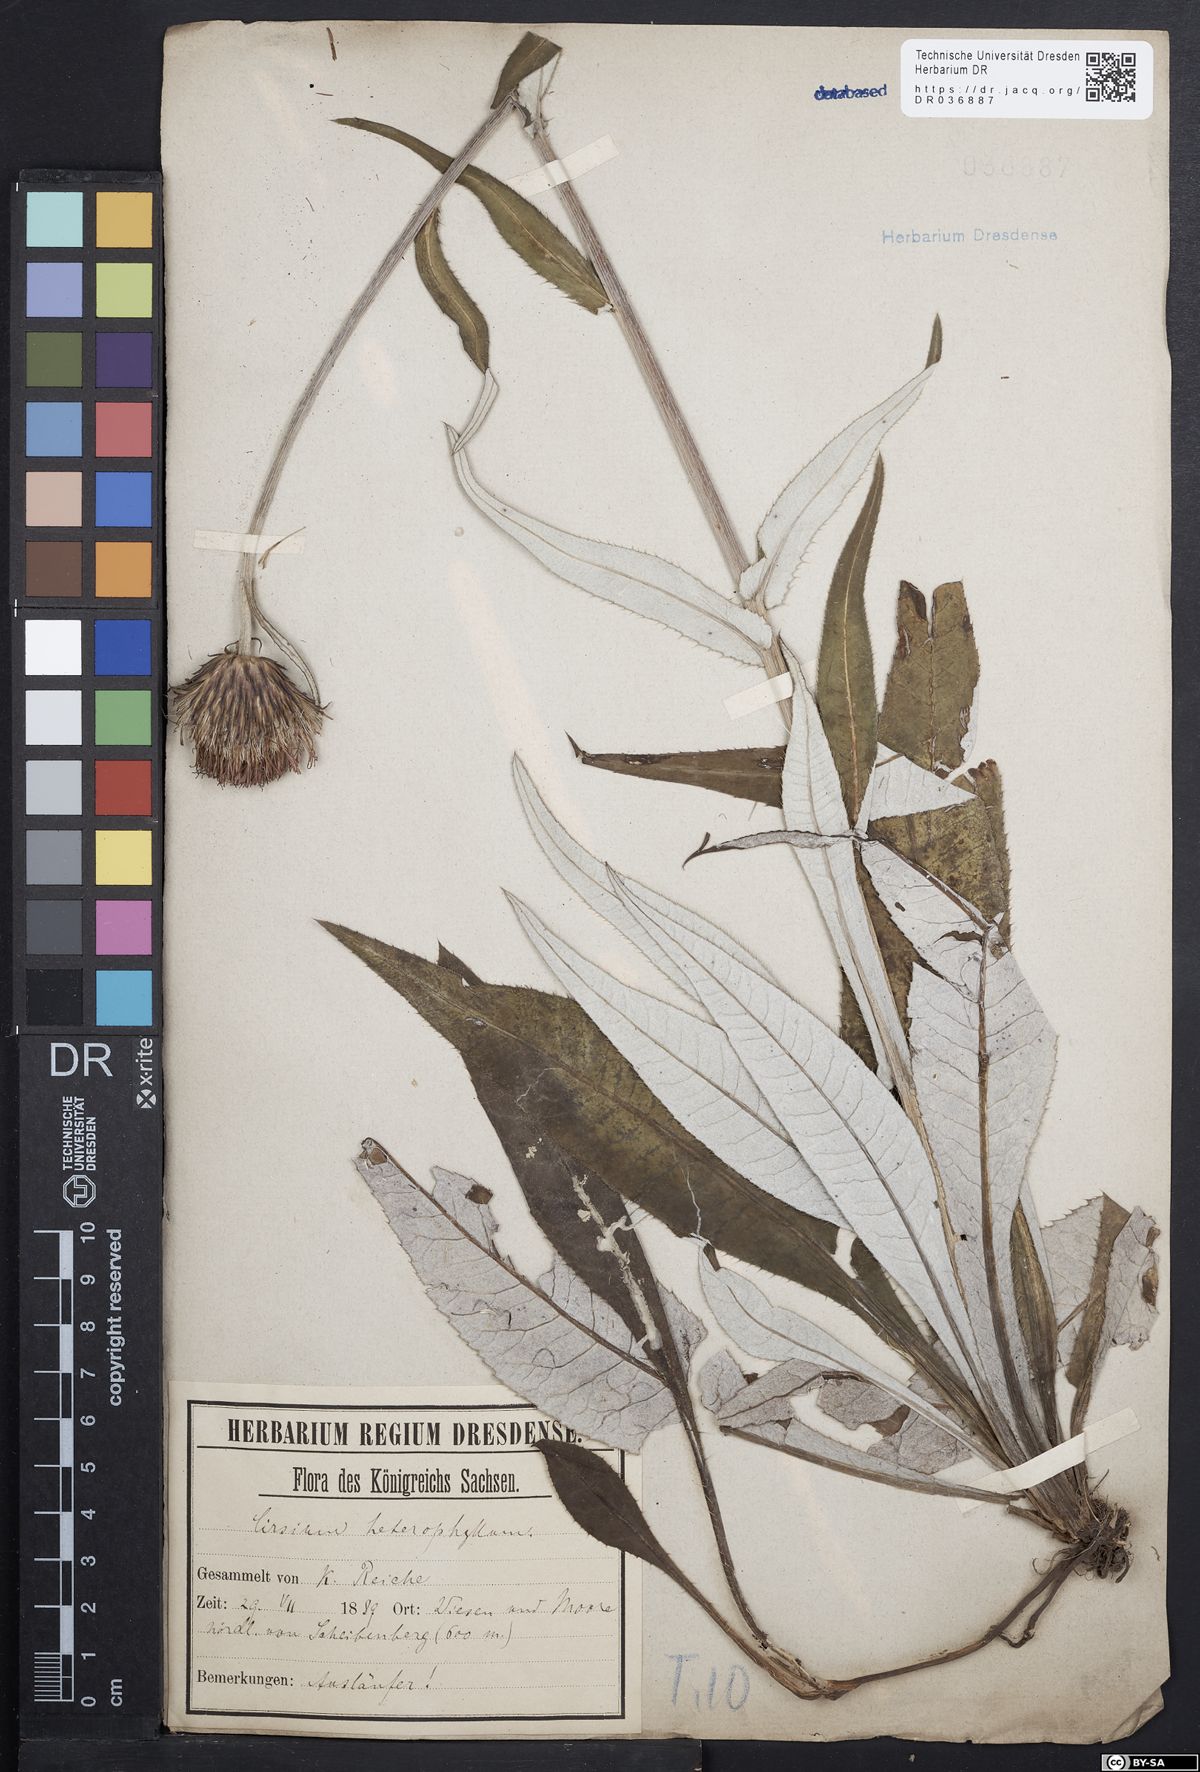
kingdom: Plantae
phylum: Tracheophyta
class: Magnoliopsida
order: Asterales
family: Asteraceae
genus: Cirsium
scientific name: Cirsium helenioides
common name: Melancholy thistle
